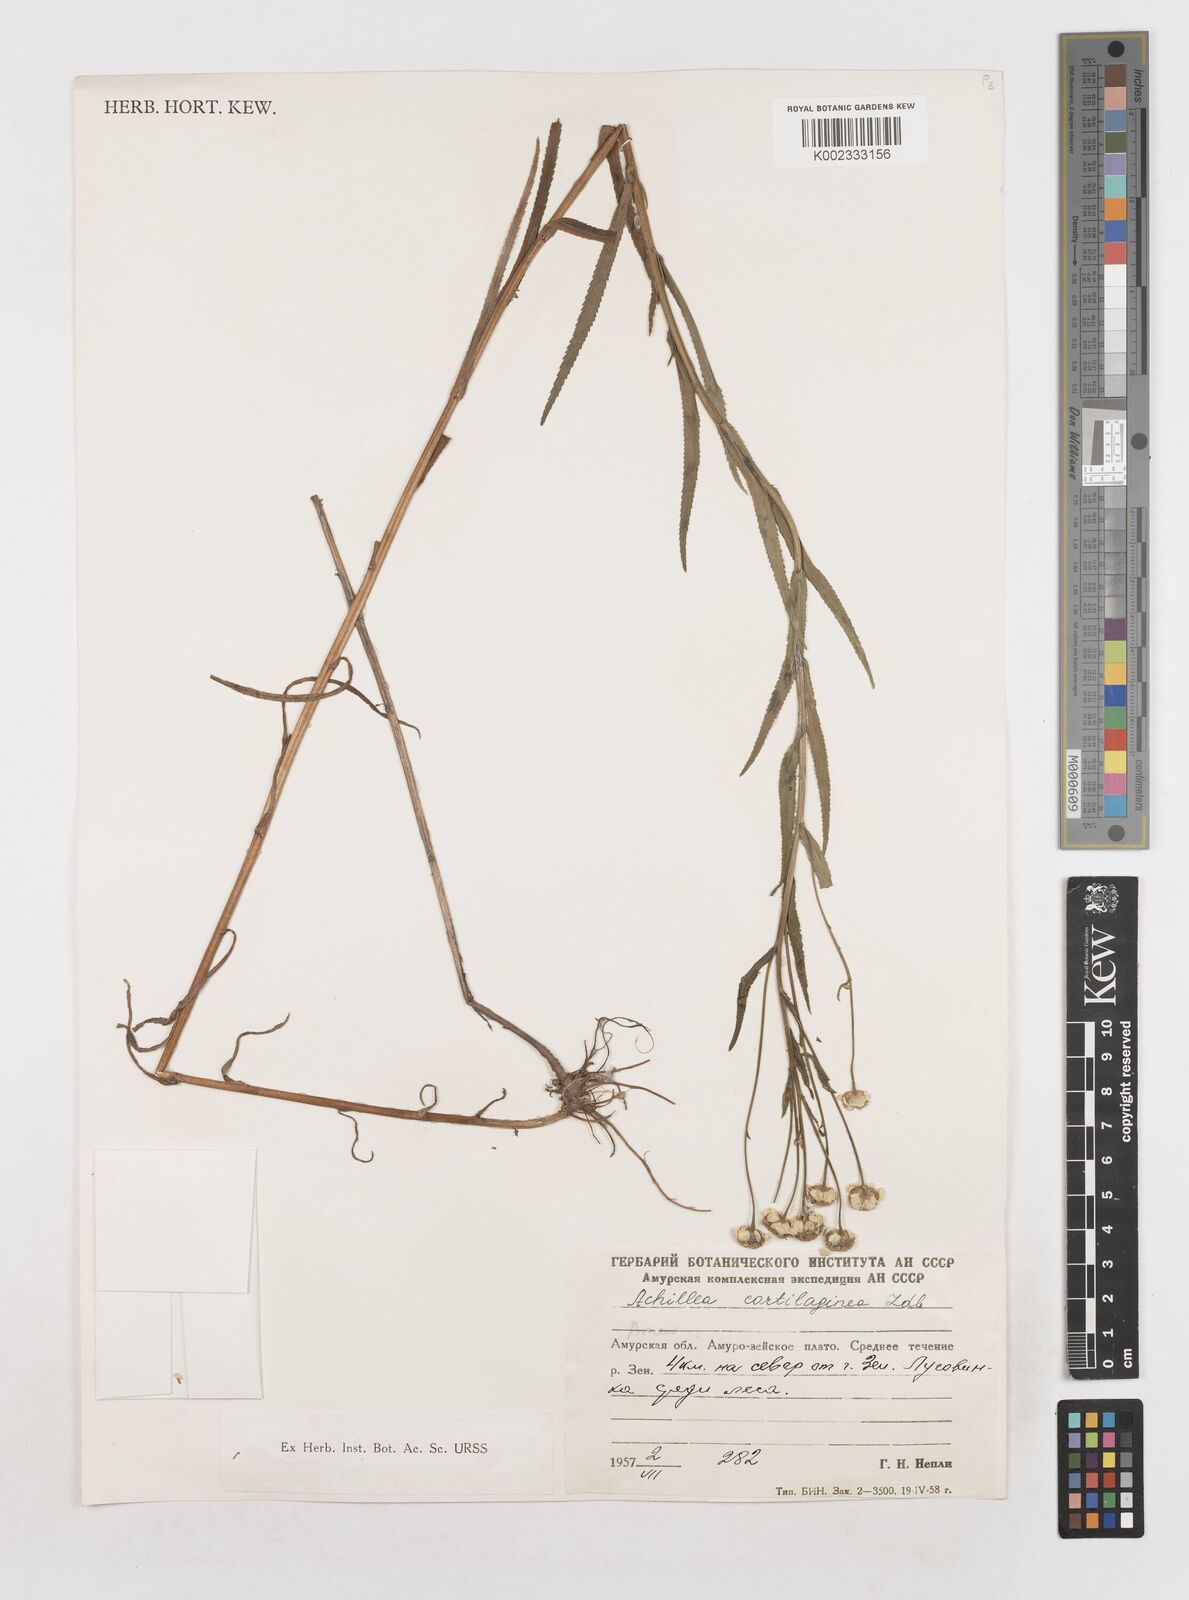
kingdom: Plantae
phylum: Tracheophyta
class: Magnoliopsida
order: Asterales
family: Asteraceae
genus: Achillea
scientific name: Achillea salicifolia
